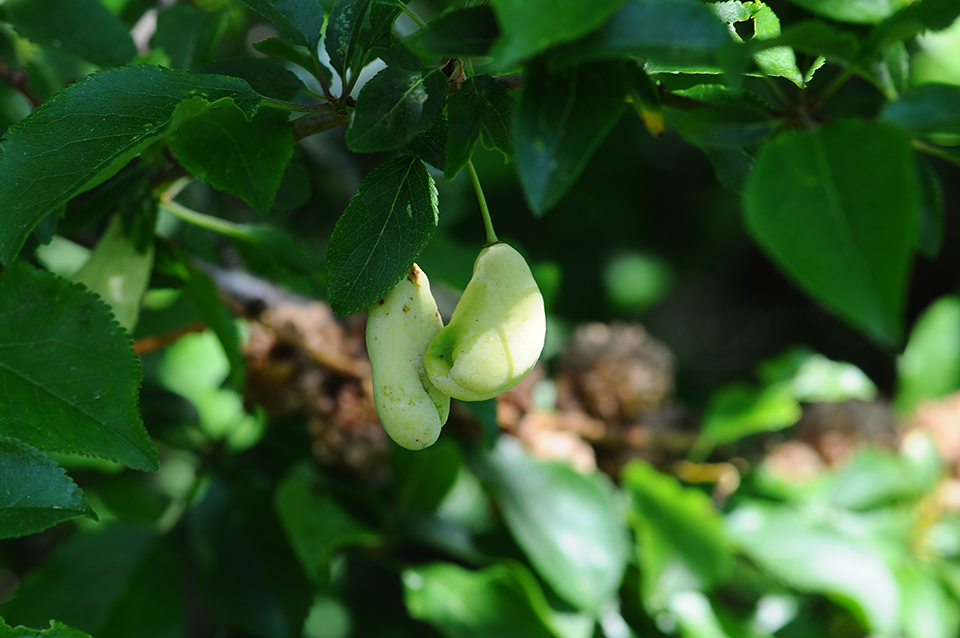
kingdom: Fungi
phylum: Ascomycota
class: Taphrinomycetes
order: Taphrinales
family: Taphrinaceae
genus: Taphrina
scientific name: Taphrina pruni
